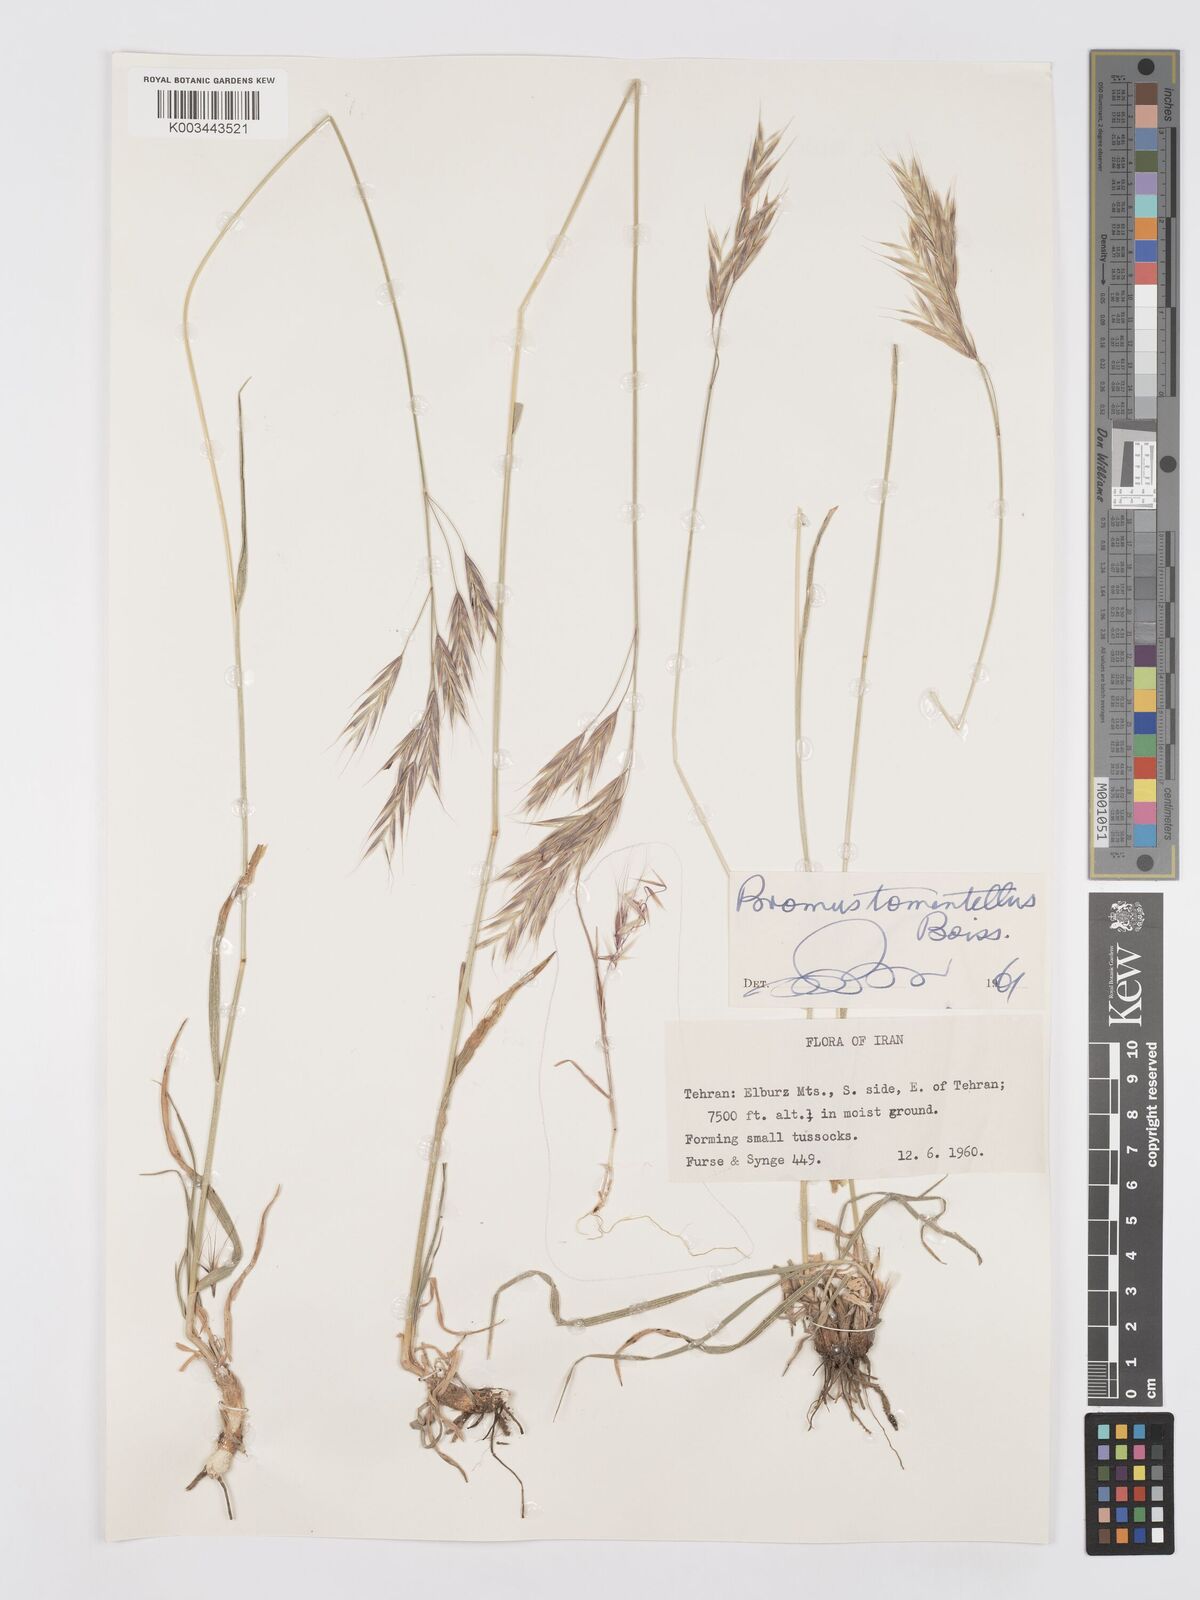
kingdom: Plantae
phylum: Tracheophyta
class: Liliopsida
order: Poales
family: Poaceae
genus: Bromus
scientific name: Bromus tomentellus
